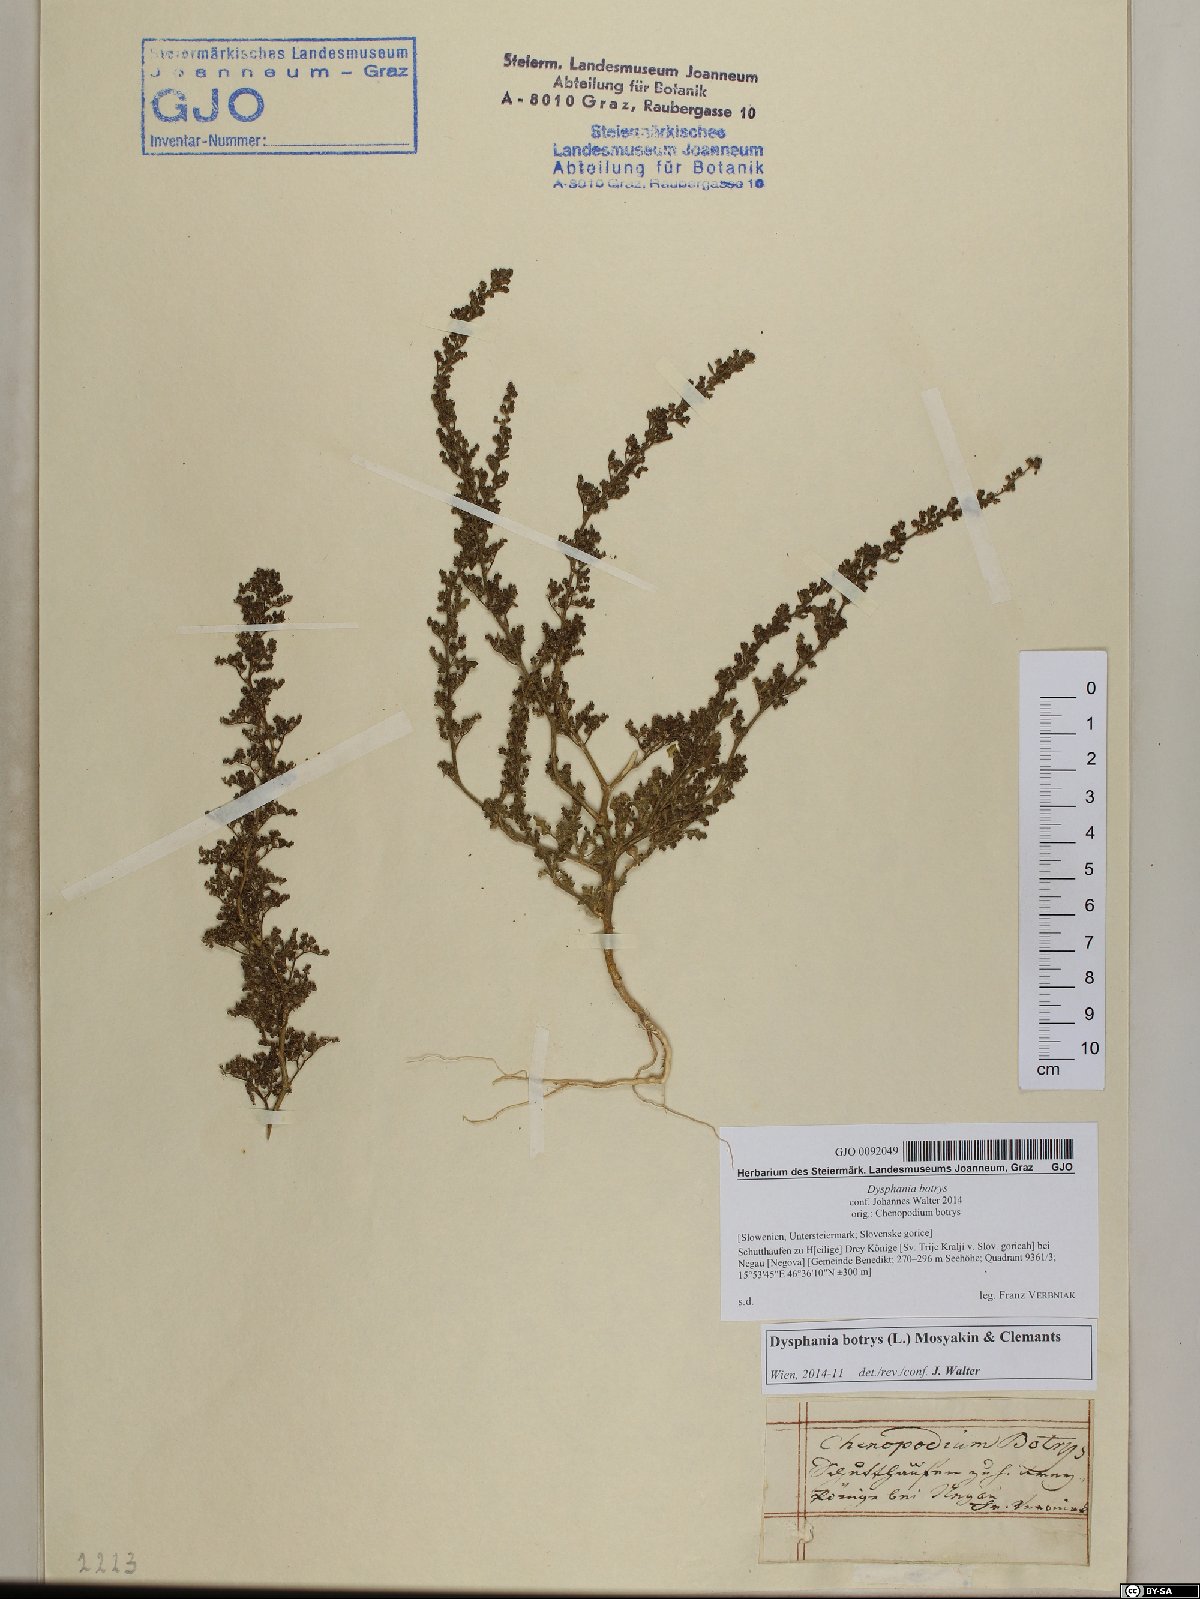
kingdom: Plantae
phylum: Tracheophyta
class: Magnoliopsida
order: Caryophyllales
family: Amaranthaceae
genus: Dysphania
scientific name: Dysphania botrys
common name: Feather-geranium
